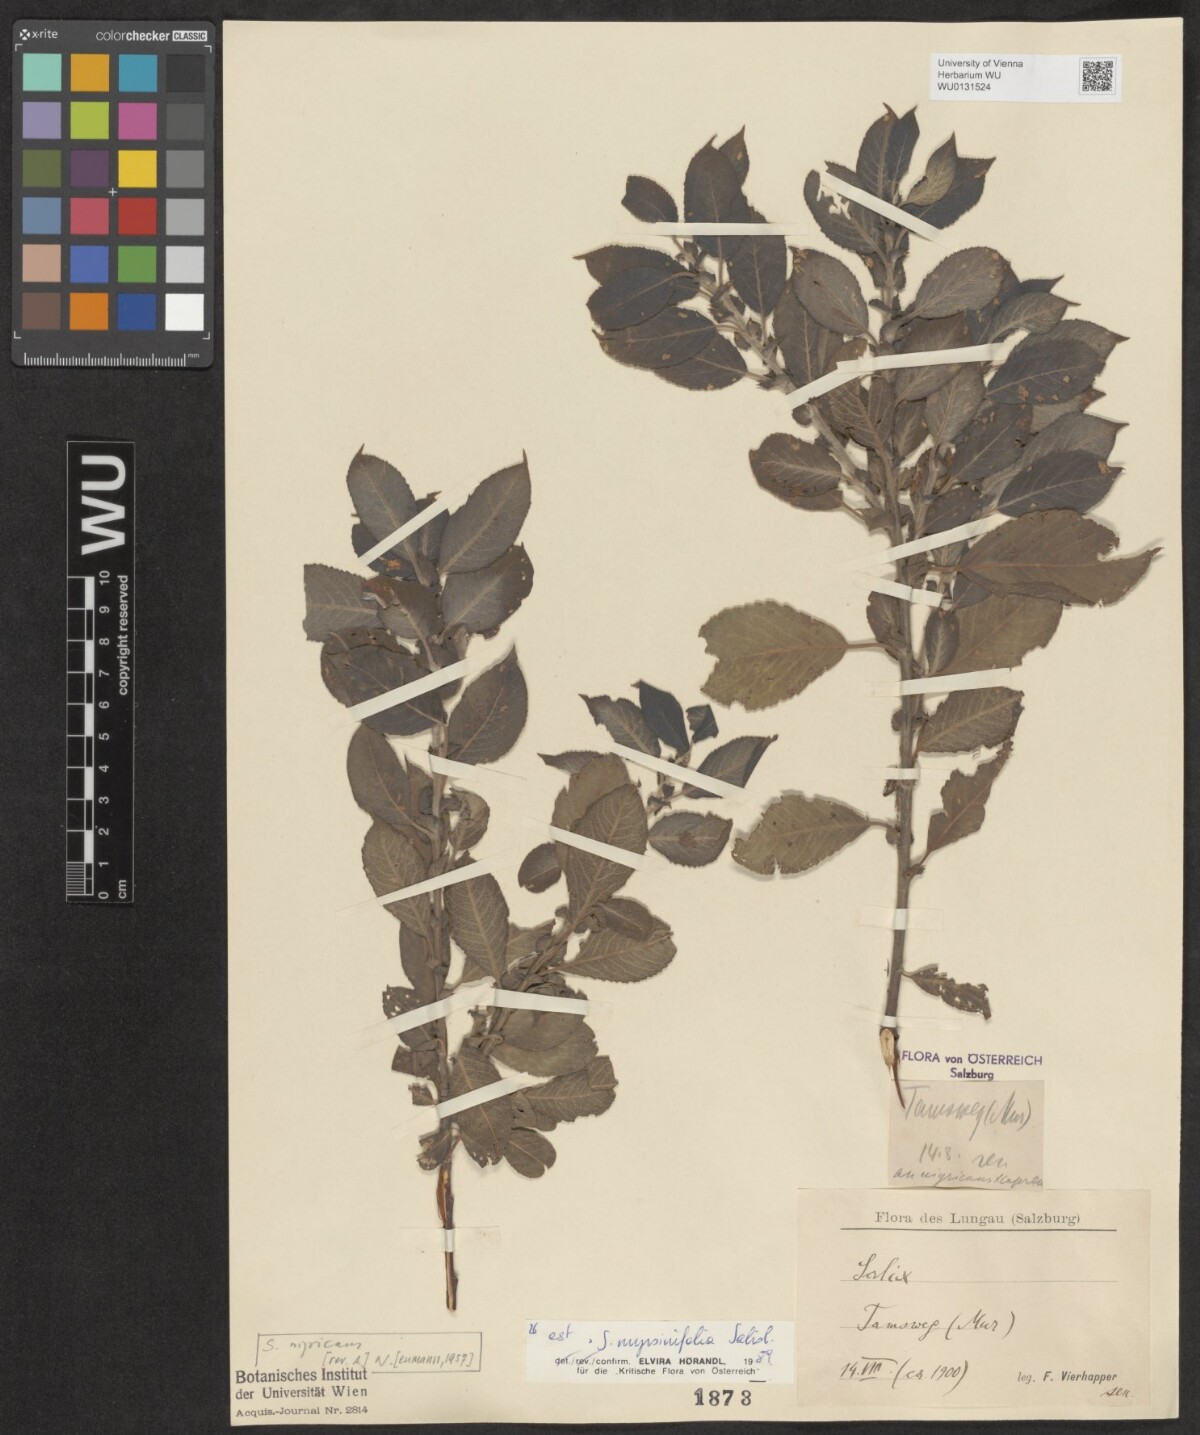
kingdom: Plantae
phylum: Tracheophyta
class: Magnoliopsida
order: Malpighiales
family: Salicaceae
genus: Salix
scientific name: Salix myrsinifolia
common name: Dark-leaved willow
